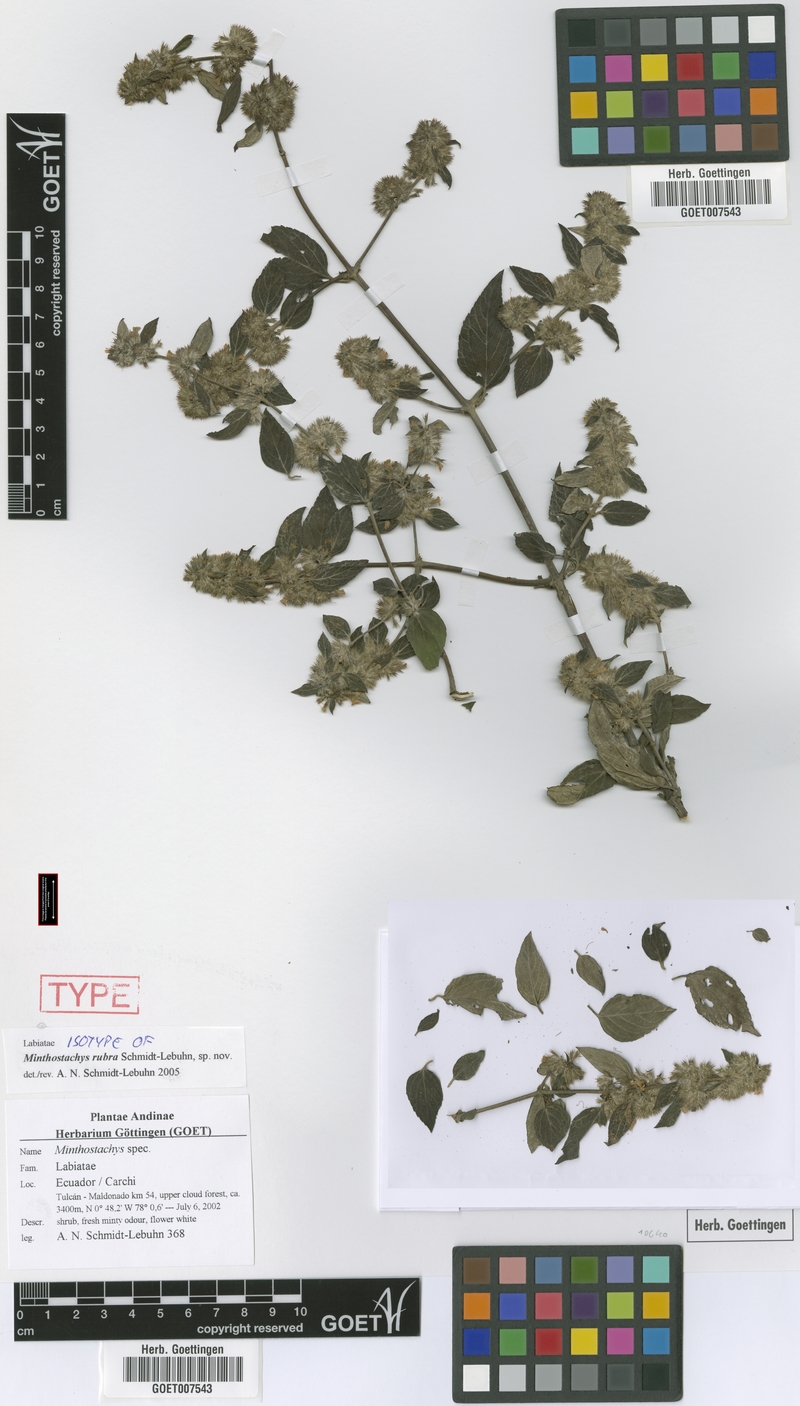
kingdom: Plantae
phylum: Tracheophyta
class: Magnoliopsida
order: Lamiales
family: Lamiaceae
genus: Minthostachys
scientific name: Minthostachys rubra
